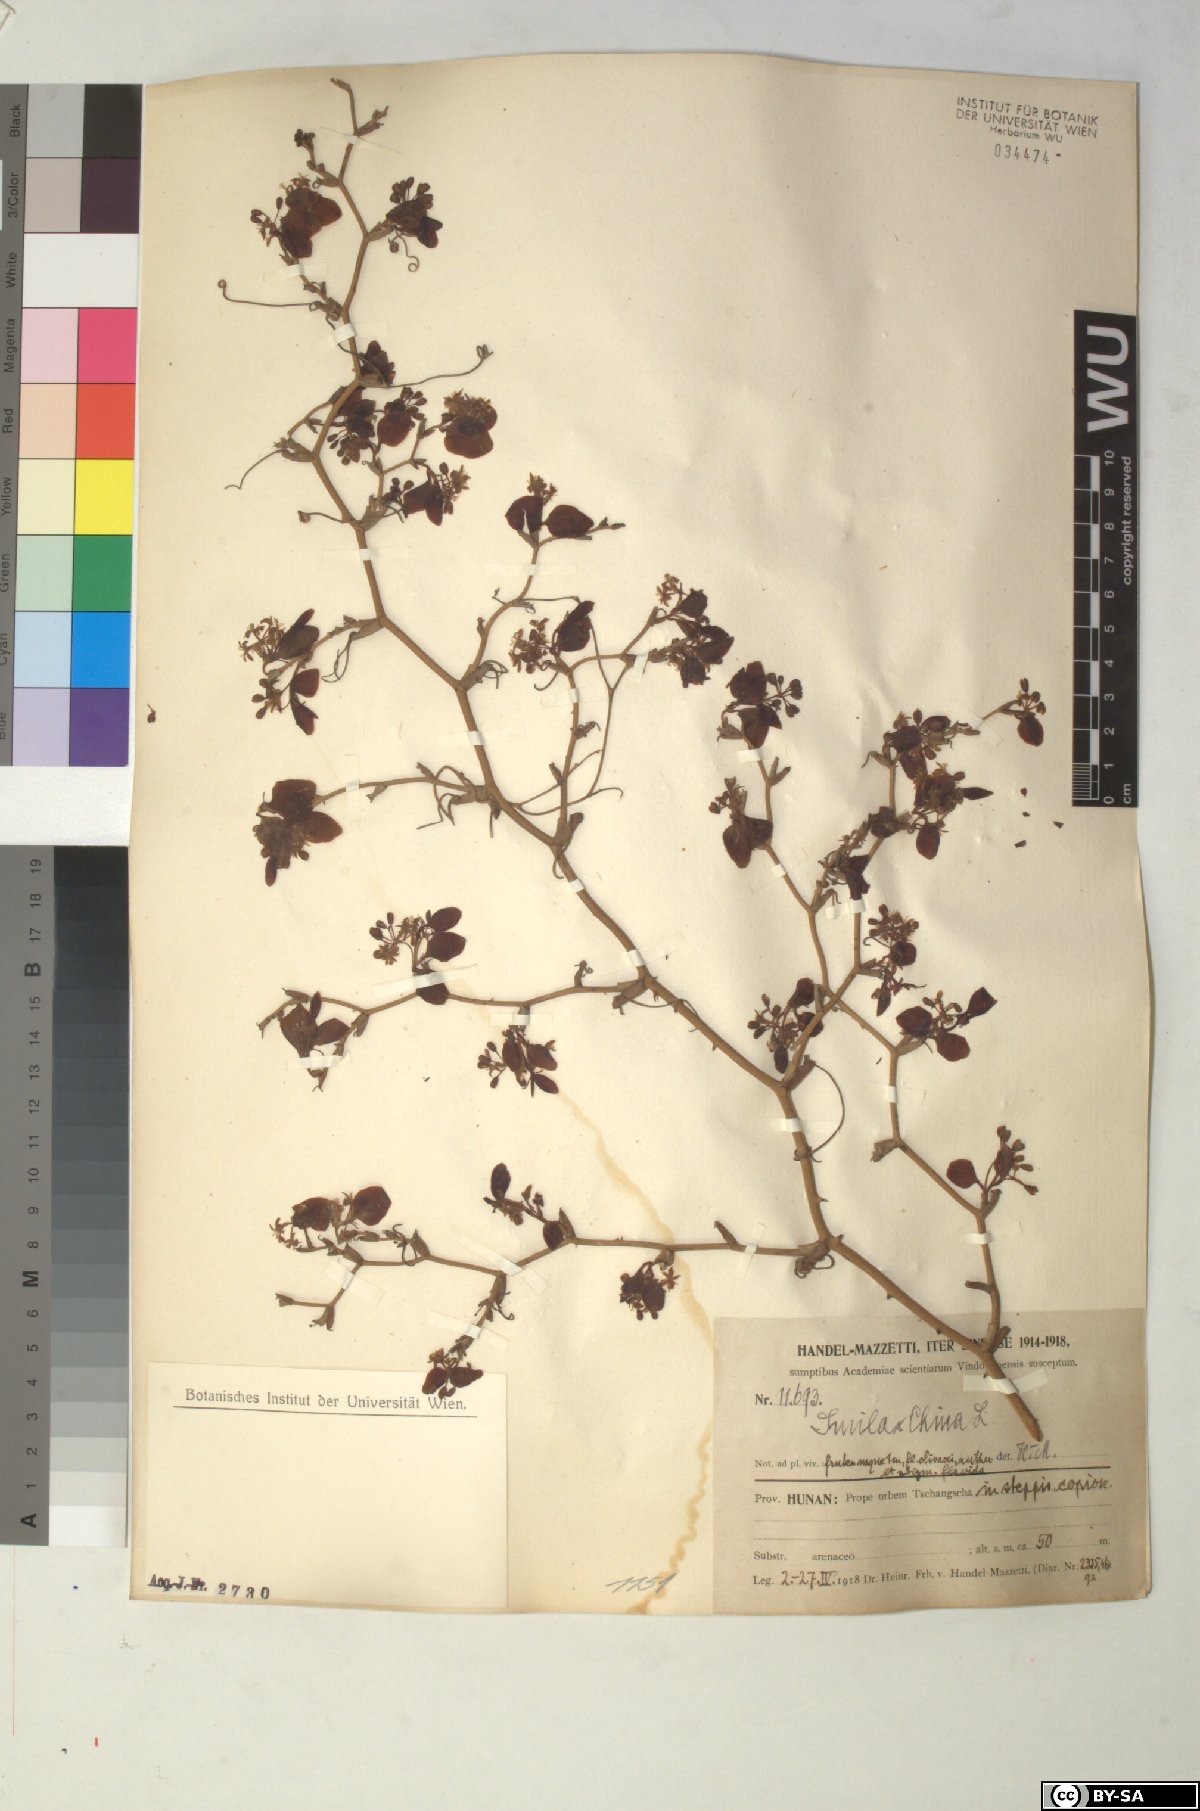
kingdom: Plantae
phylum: Tracheophyta
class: Liliopsida
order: Liliales
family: Smilacaceae
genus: Smilax
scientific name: Smilax china
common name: Chinaroot
